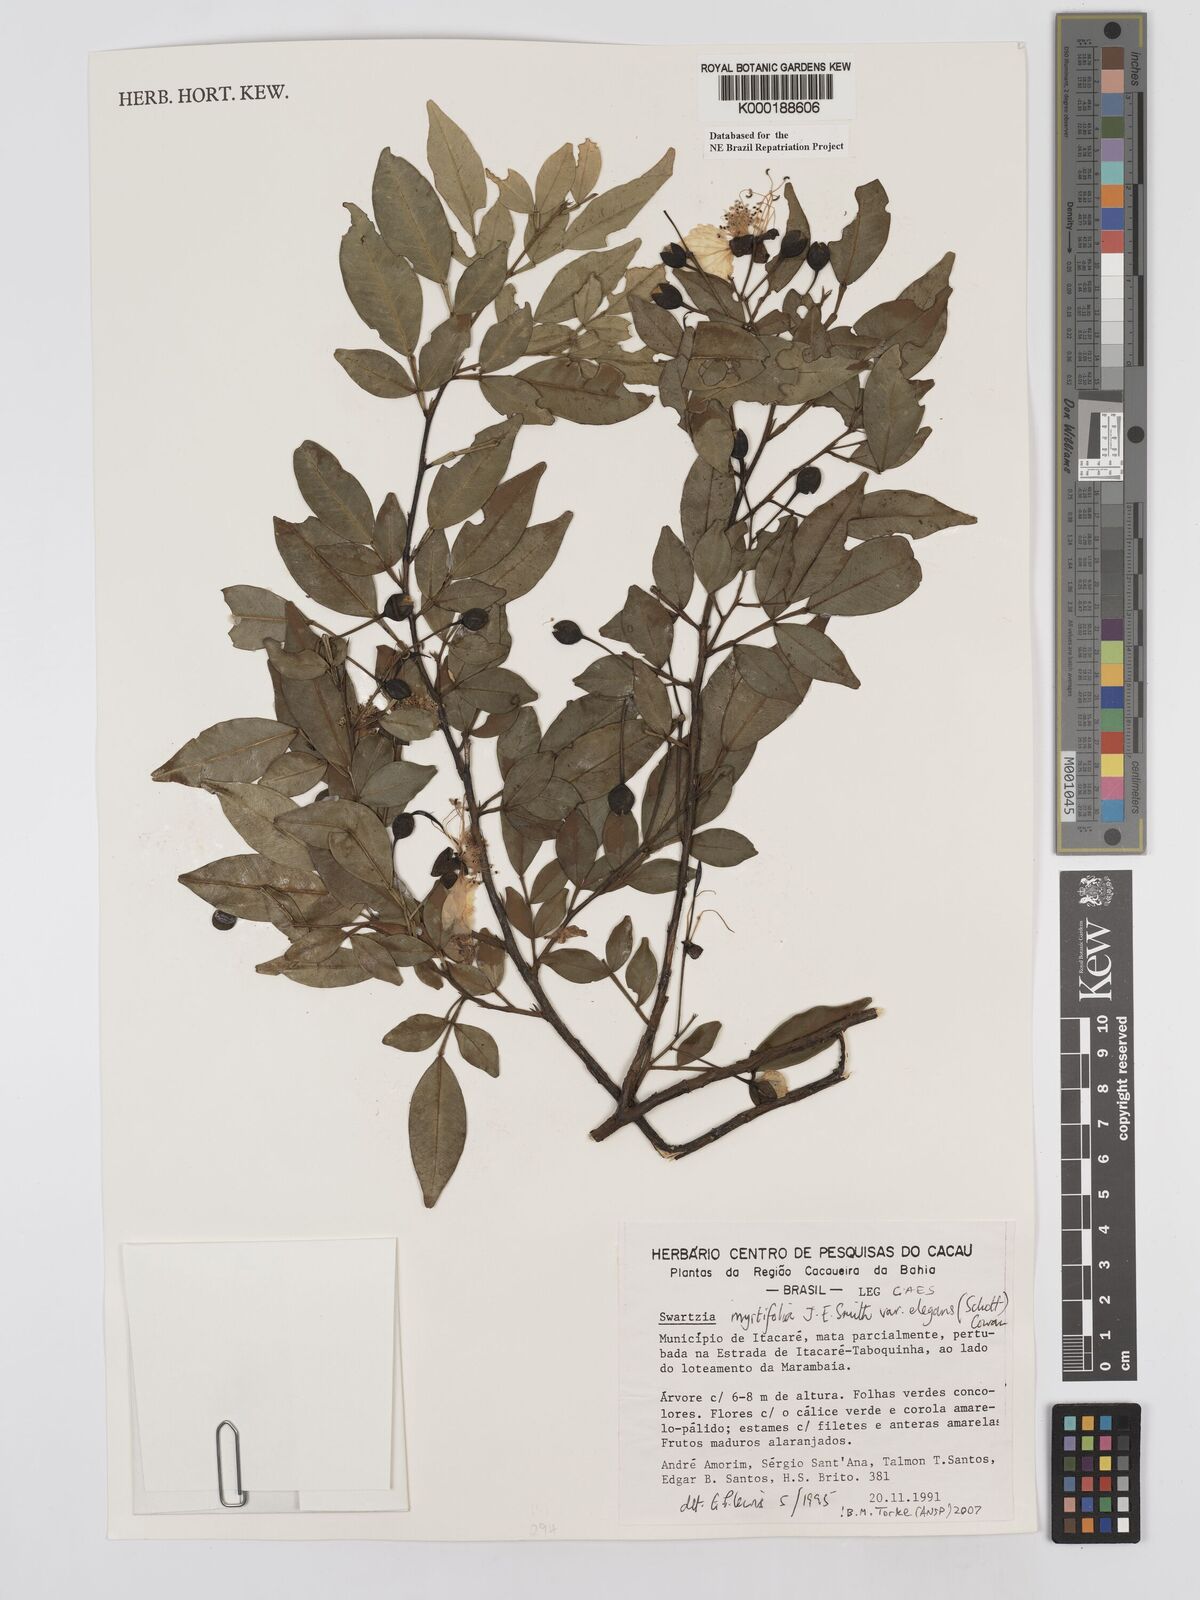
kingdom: Plantae
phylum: Tracheophyta
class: Magnoliopsida
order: Fabales
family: Fabaceae
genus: Swartzia
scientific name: Swartzia myrtifolia
